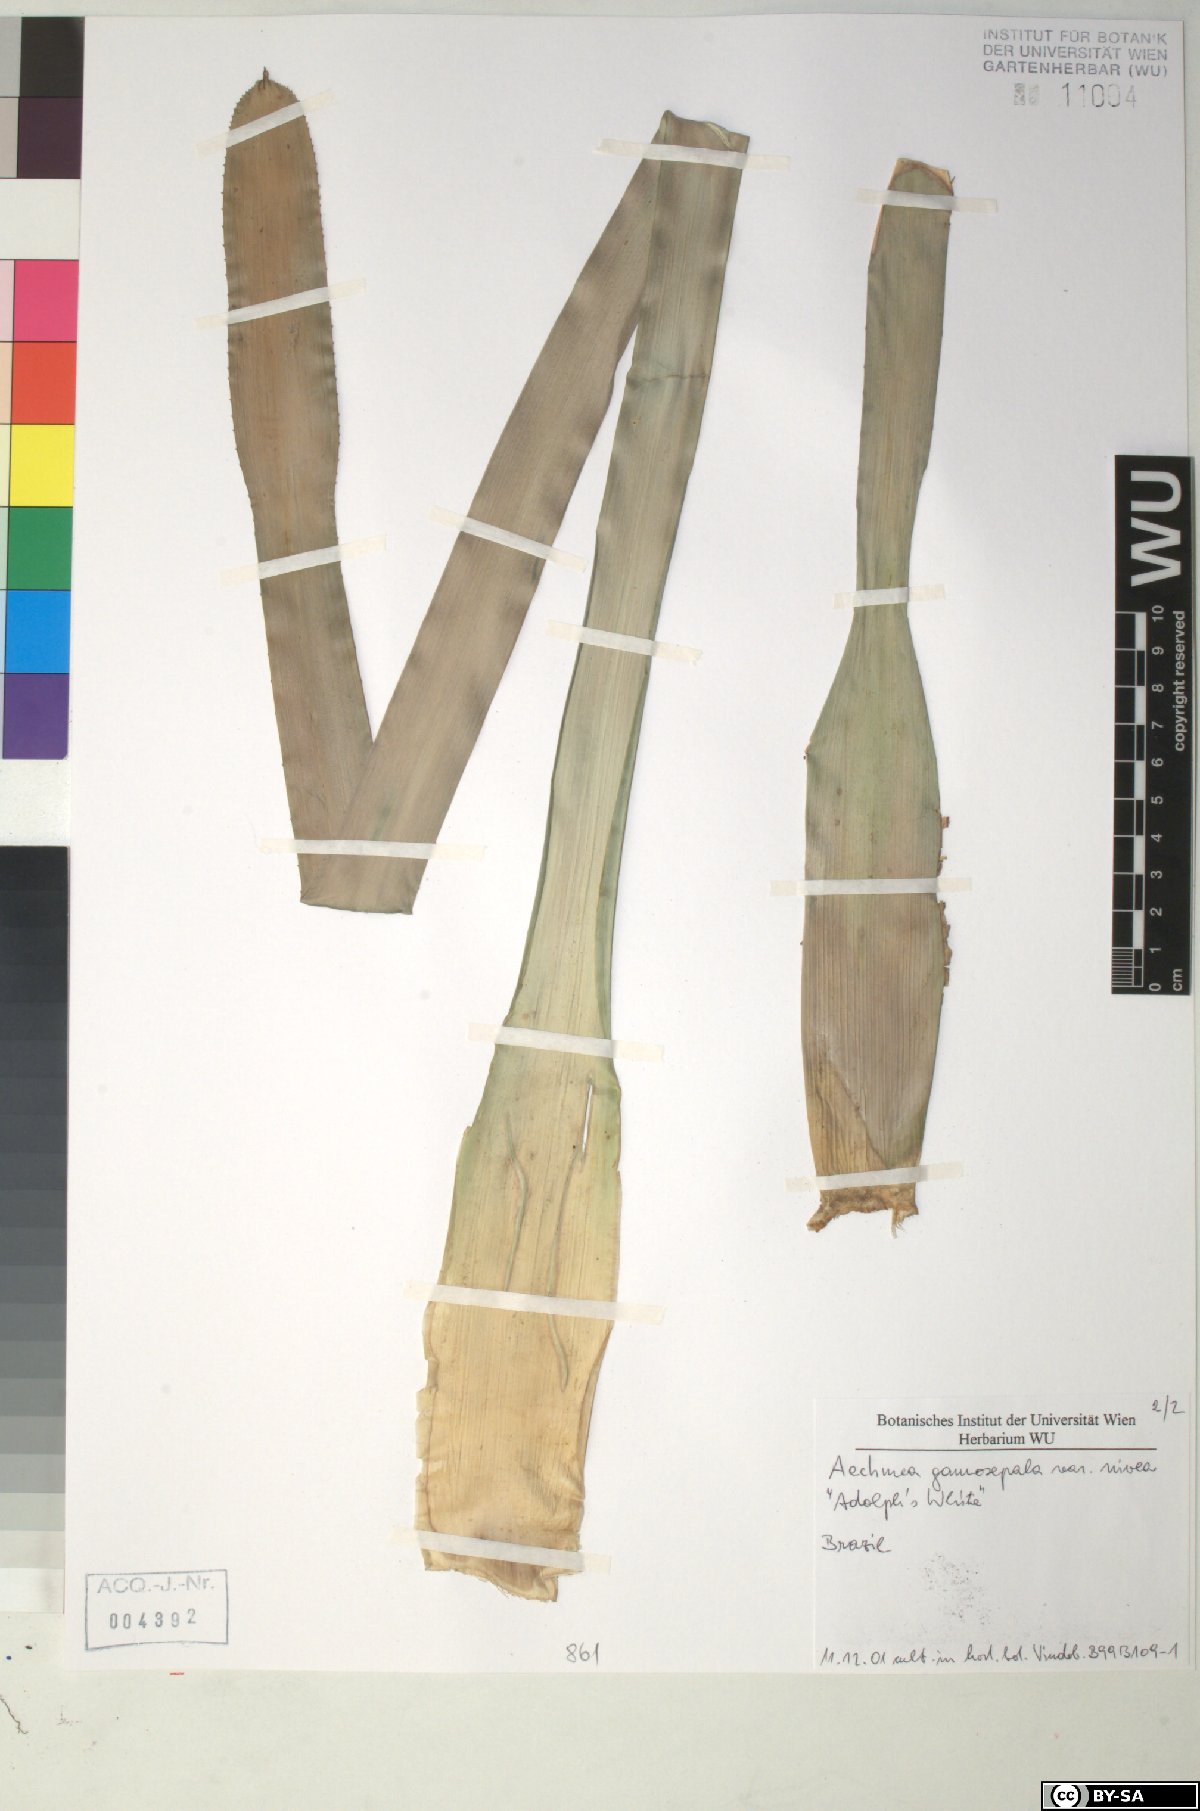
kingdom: Plantae
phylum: Tracheophyta
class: Liliopsida
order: Poales
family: Bromeliaceae
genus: Aechmea
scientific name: Aechmea gamosepala
